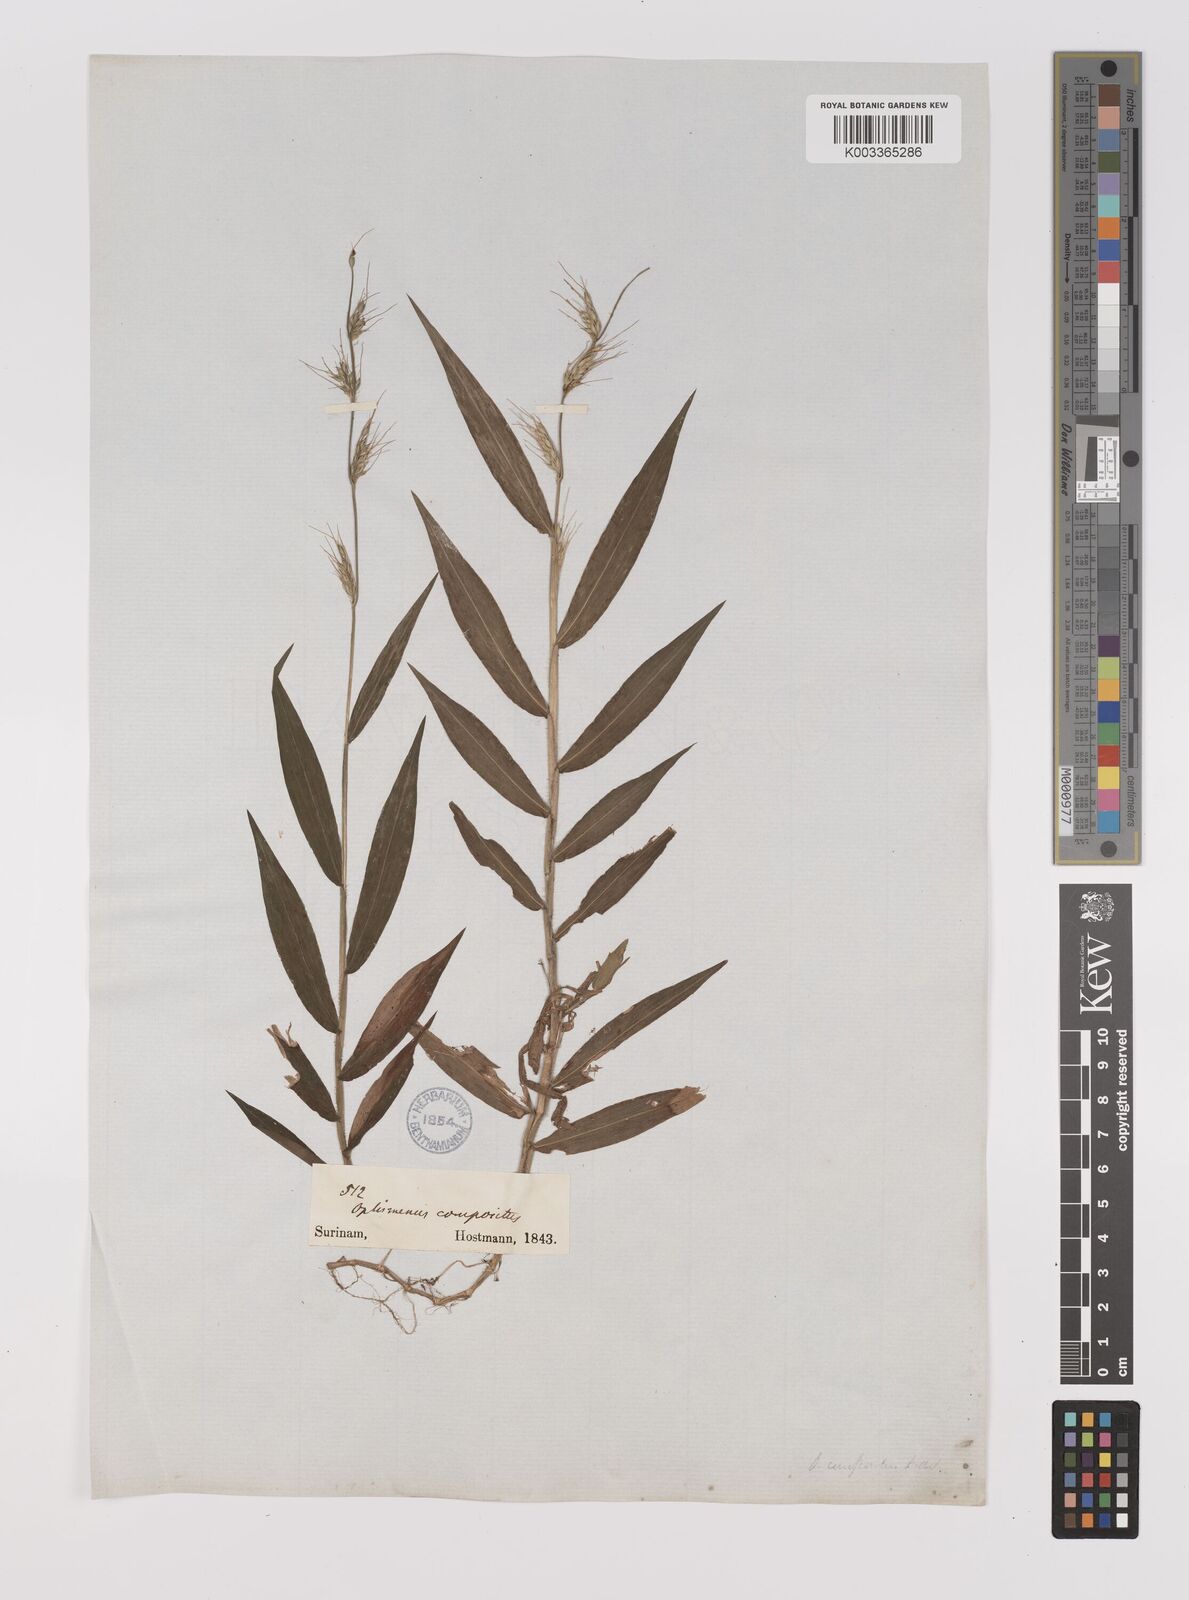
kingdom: Plantae
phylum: Tracheophyta
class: Liliopsida
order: Poales
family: Poaceae
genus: Oplismenus
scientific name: Oplismenus hirtellus
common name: Basketgrass
